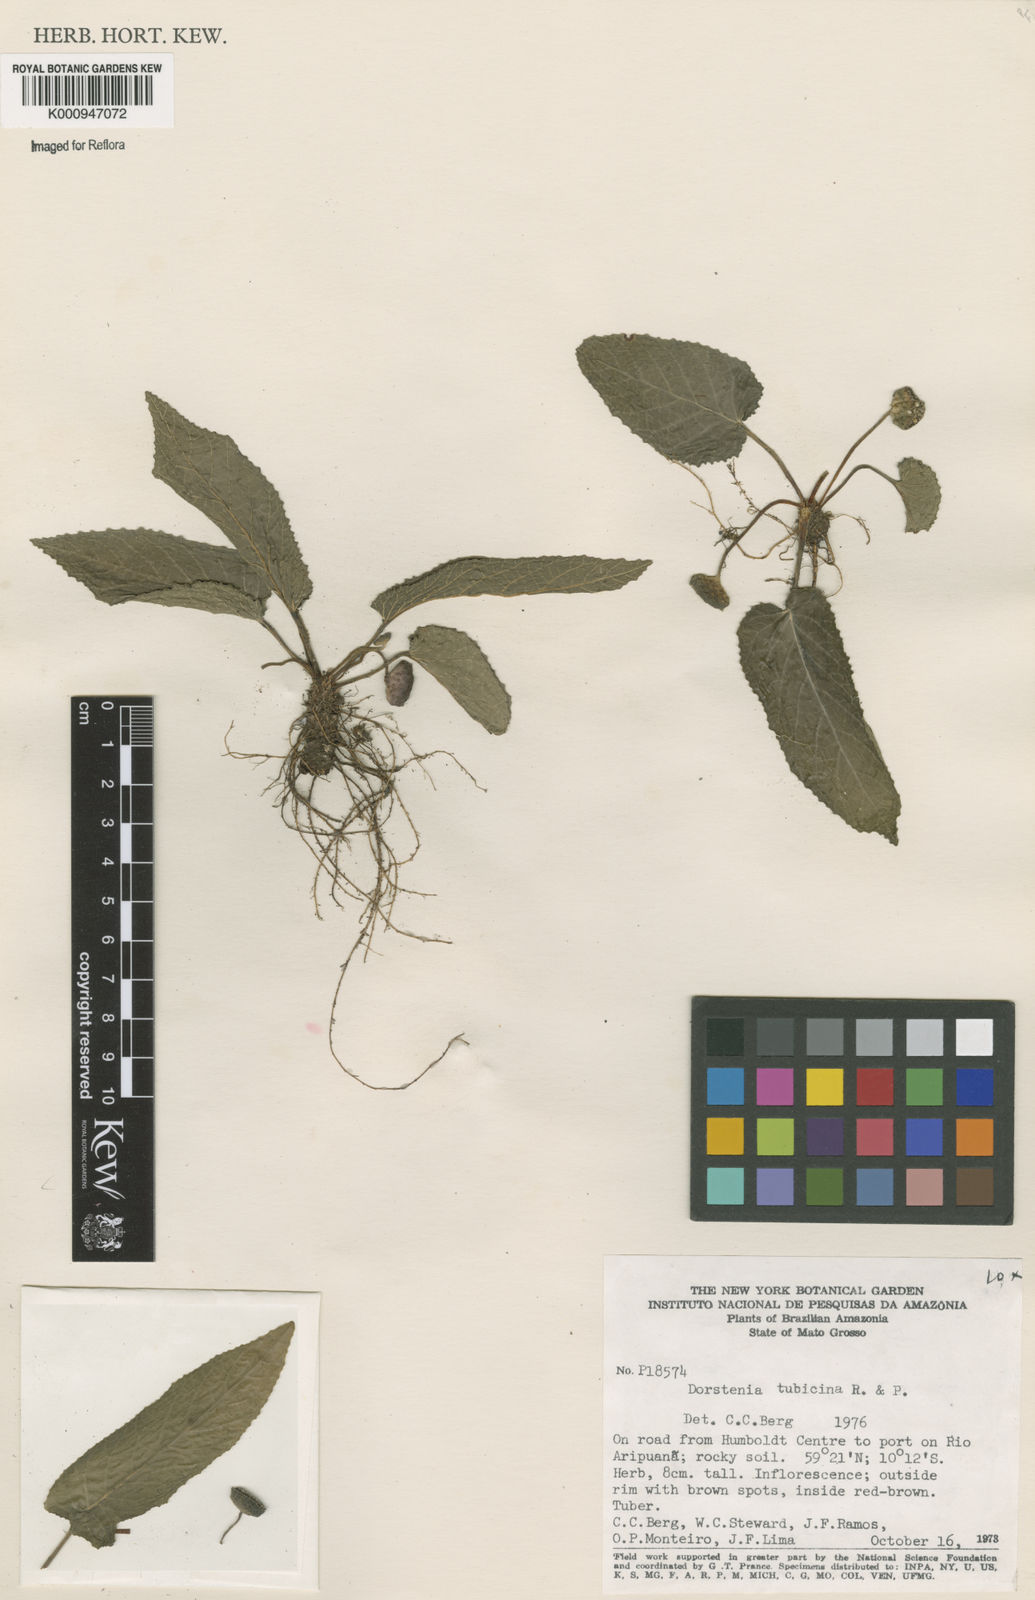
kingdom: Plantae
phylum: Tracheophyta
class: Magnoliopsida
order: Rosales
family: Moraceae
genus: Dorstenia
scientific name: Dorstenia brasiliensis
